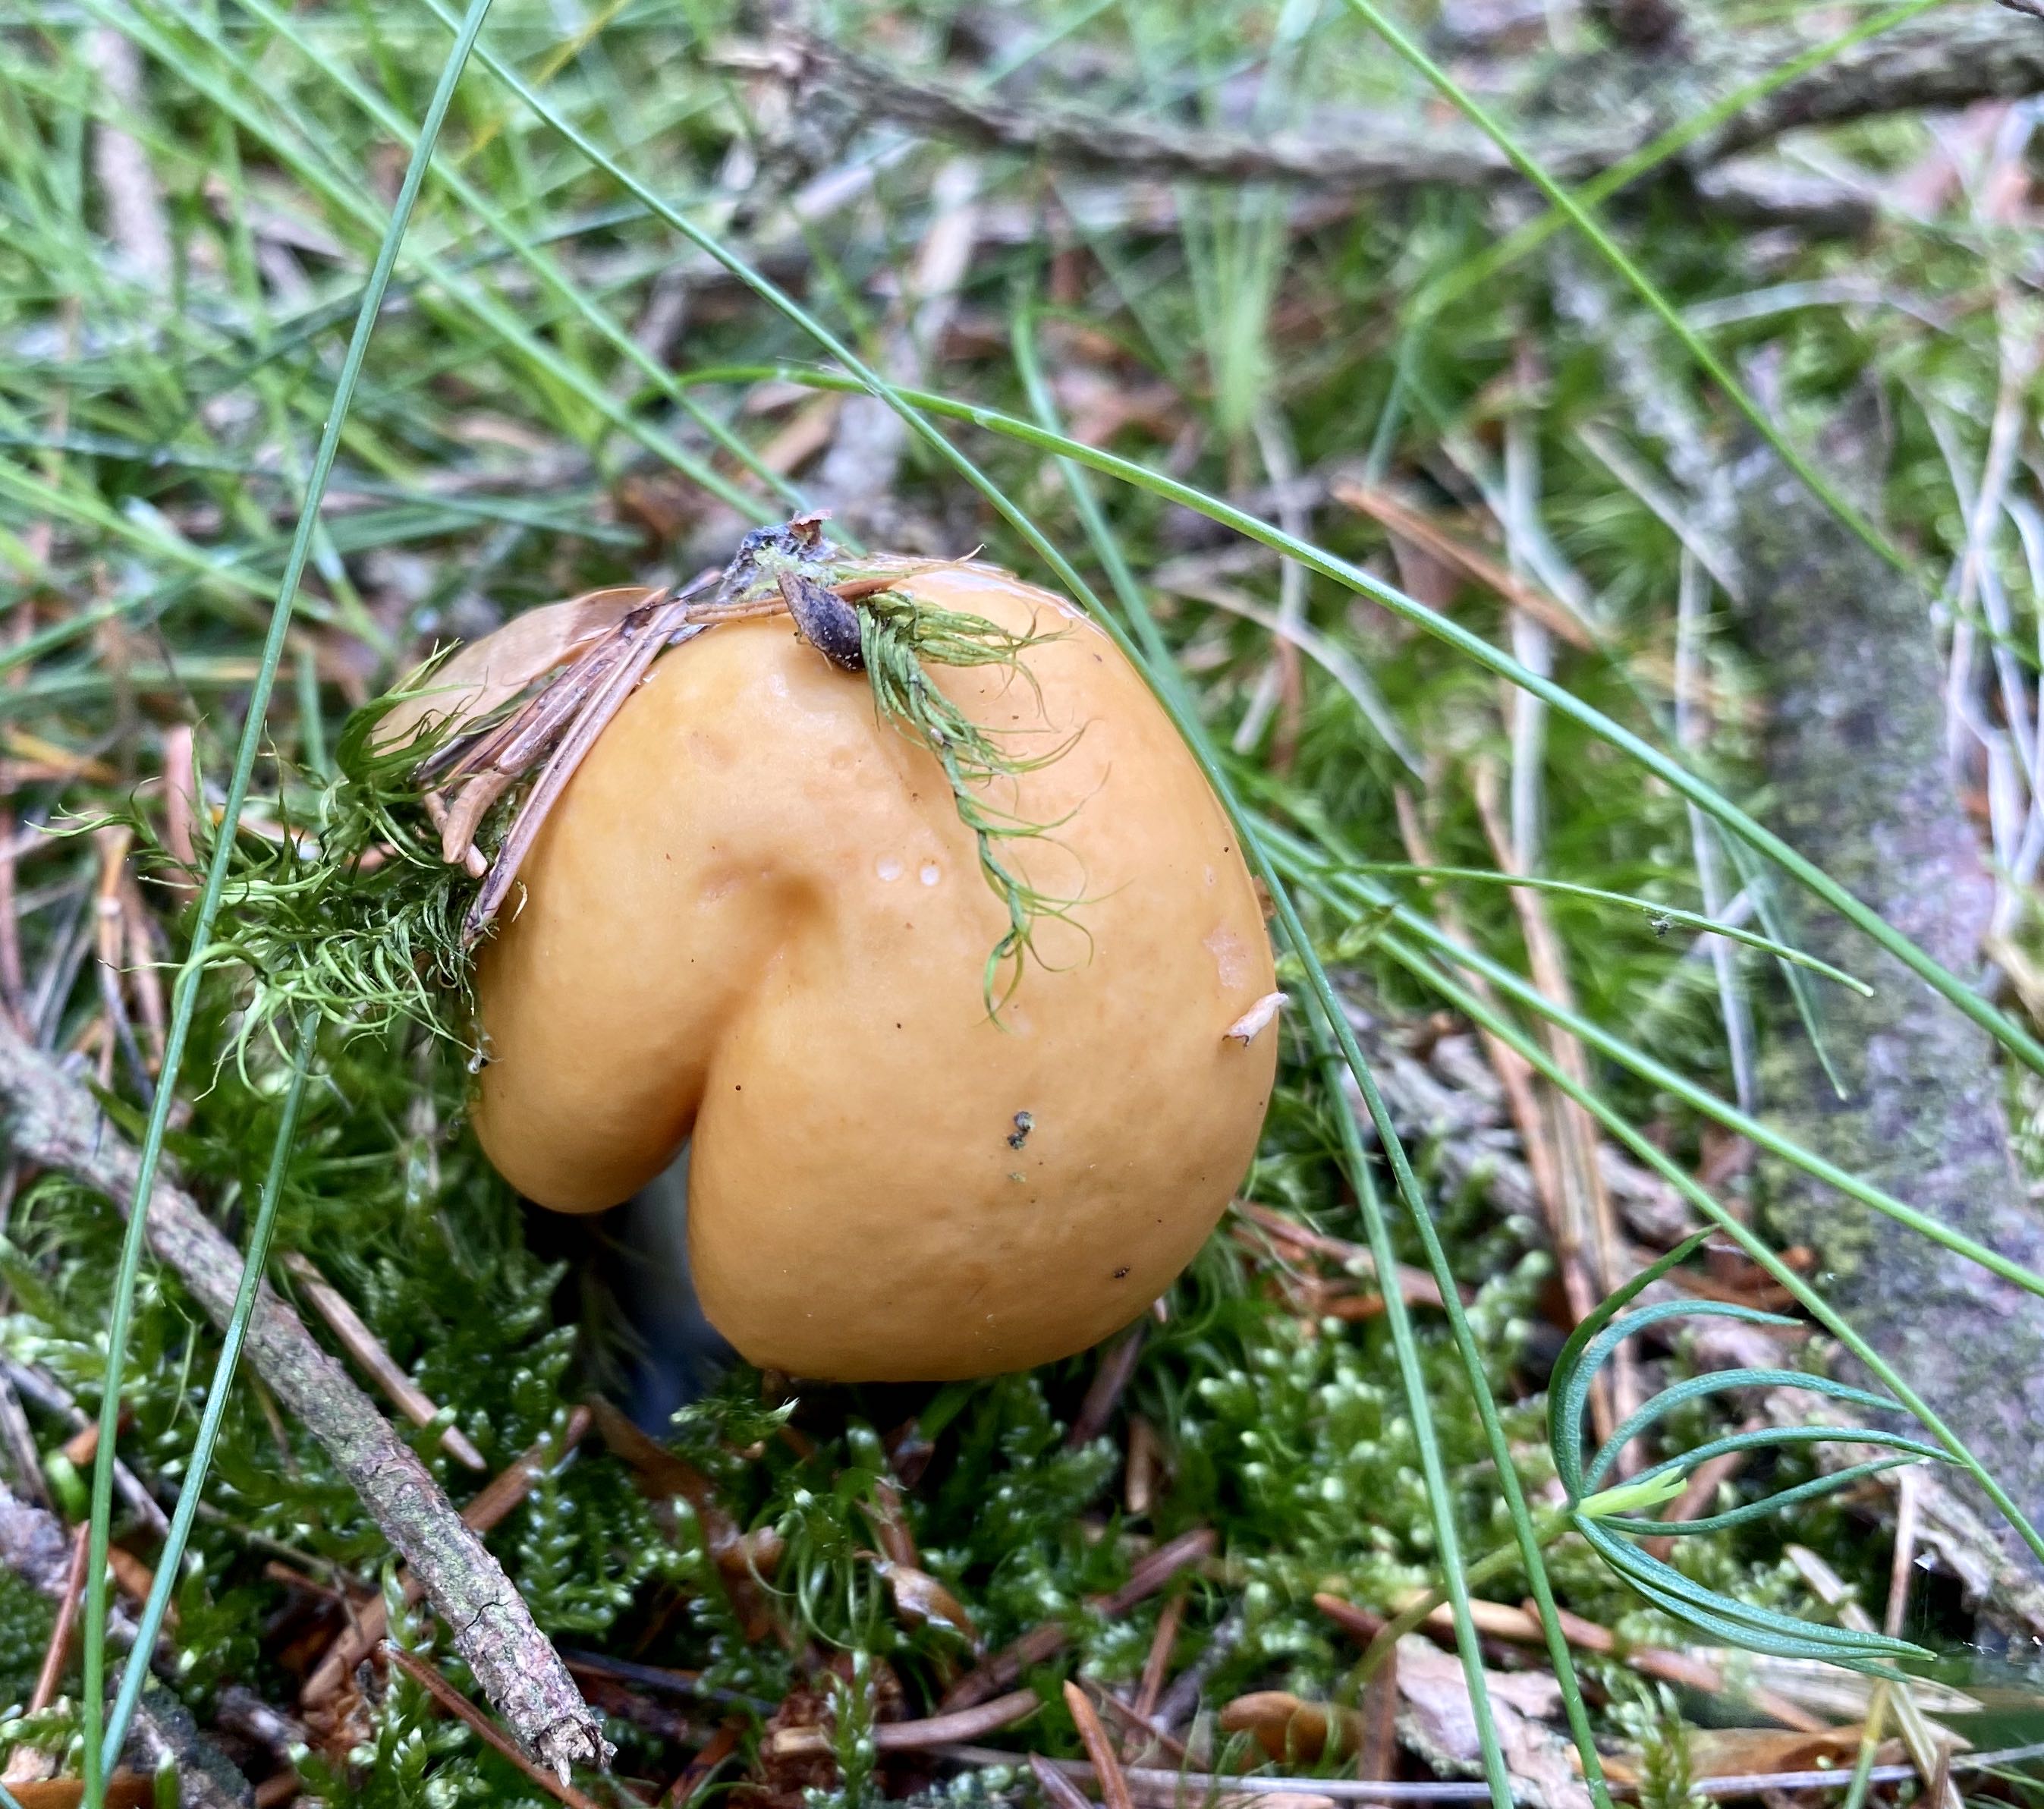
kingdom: Fungi
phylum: Basidiomycota
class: Agaricomycetes
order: Russulales
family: Russulaceae
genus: Russula
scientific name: Russula decolorans
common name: afblegende skørhat
